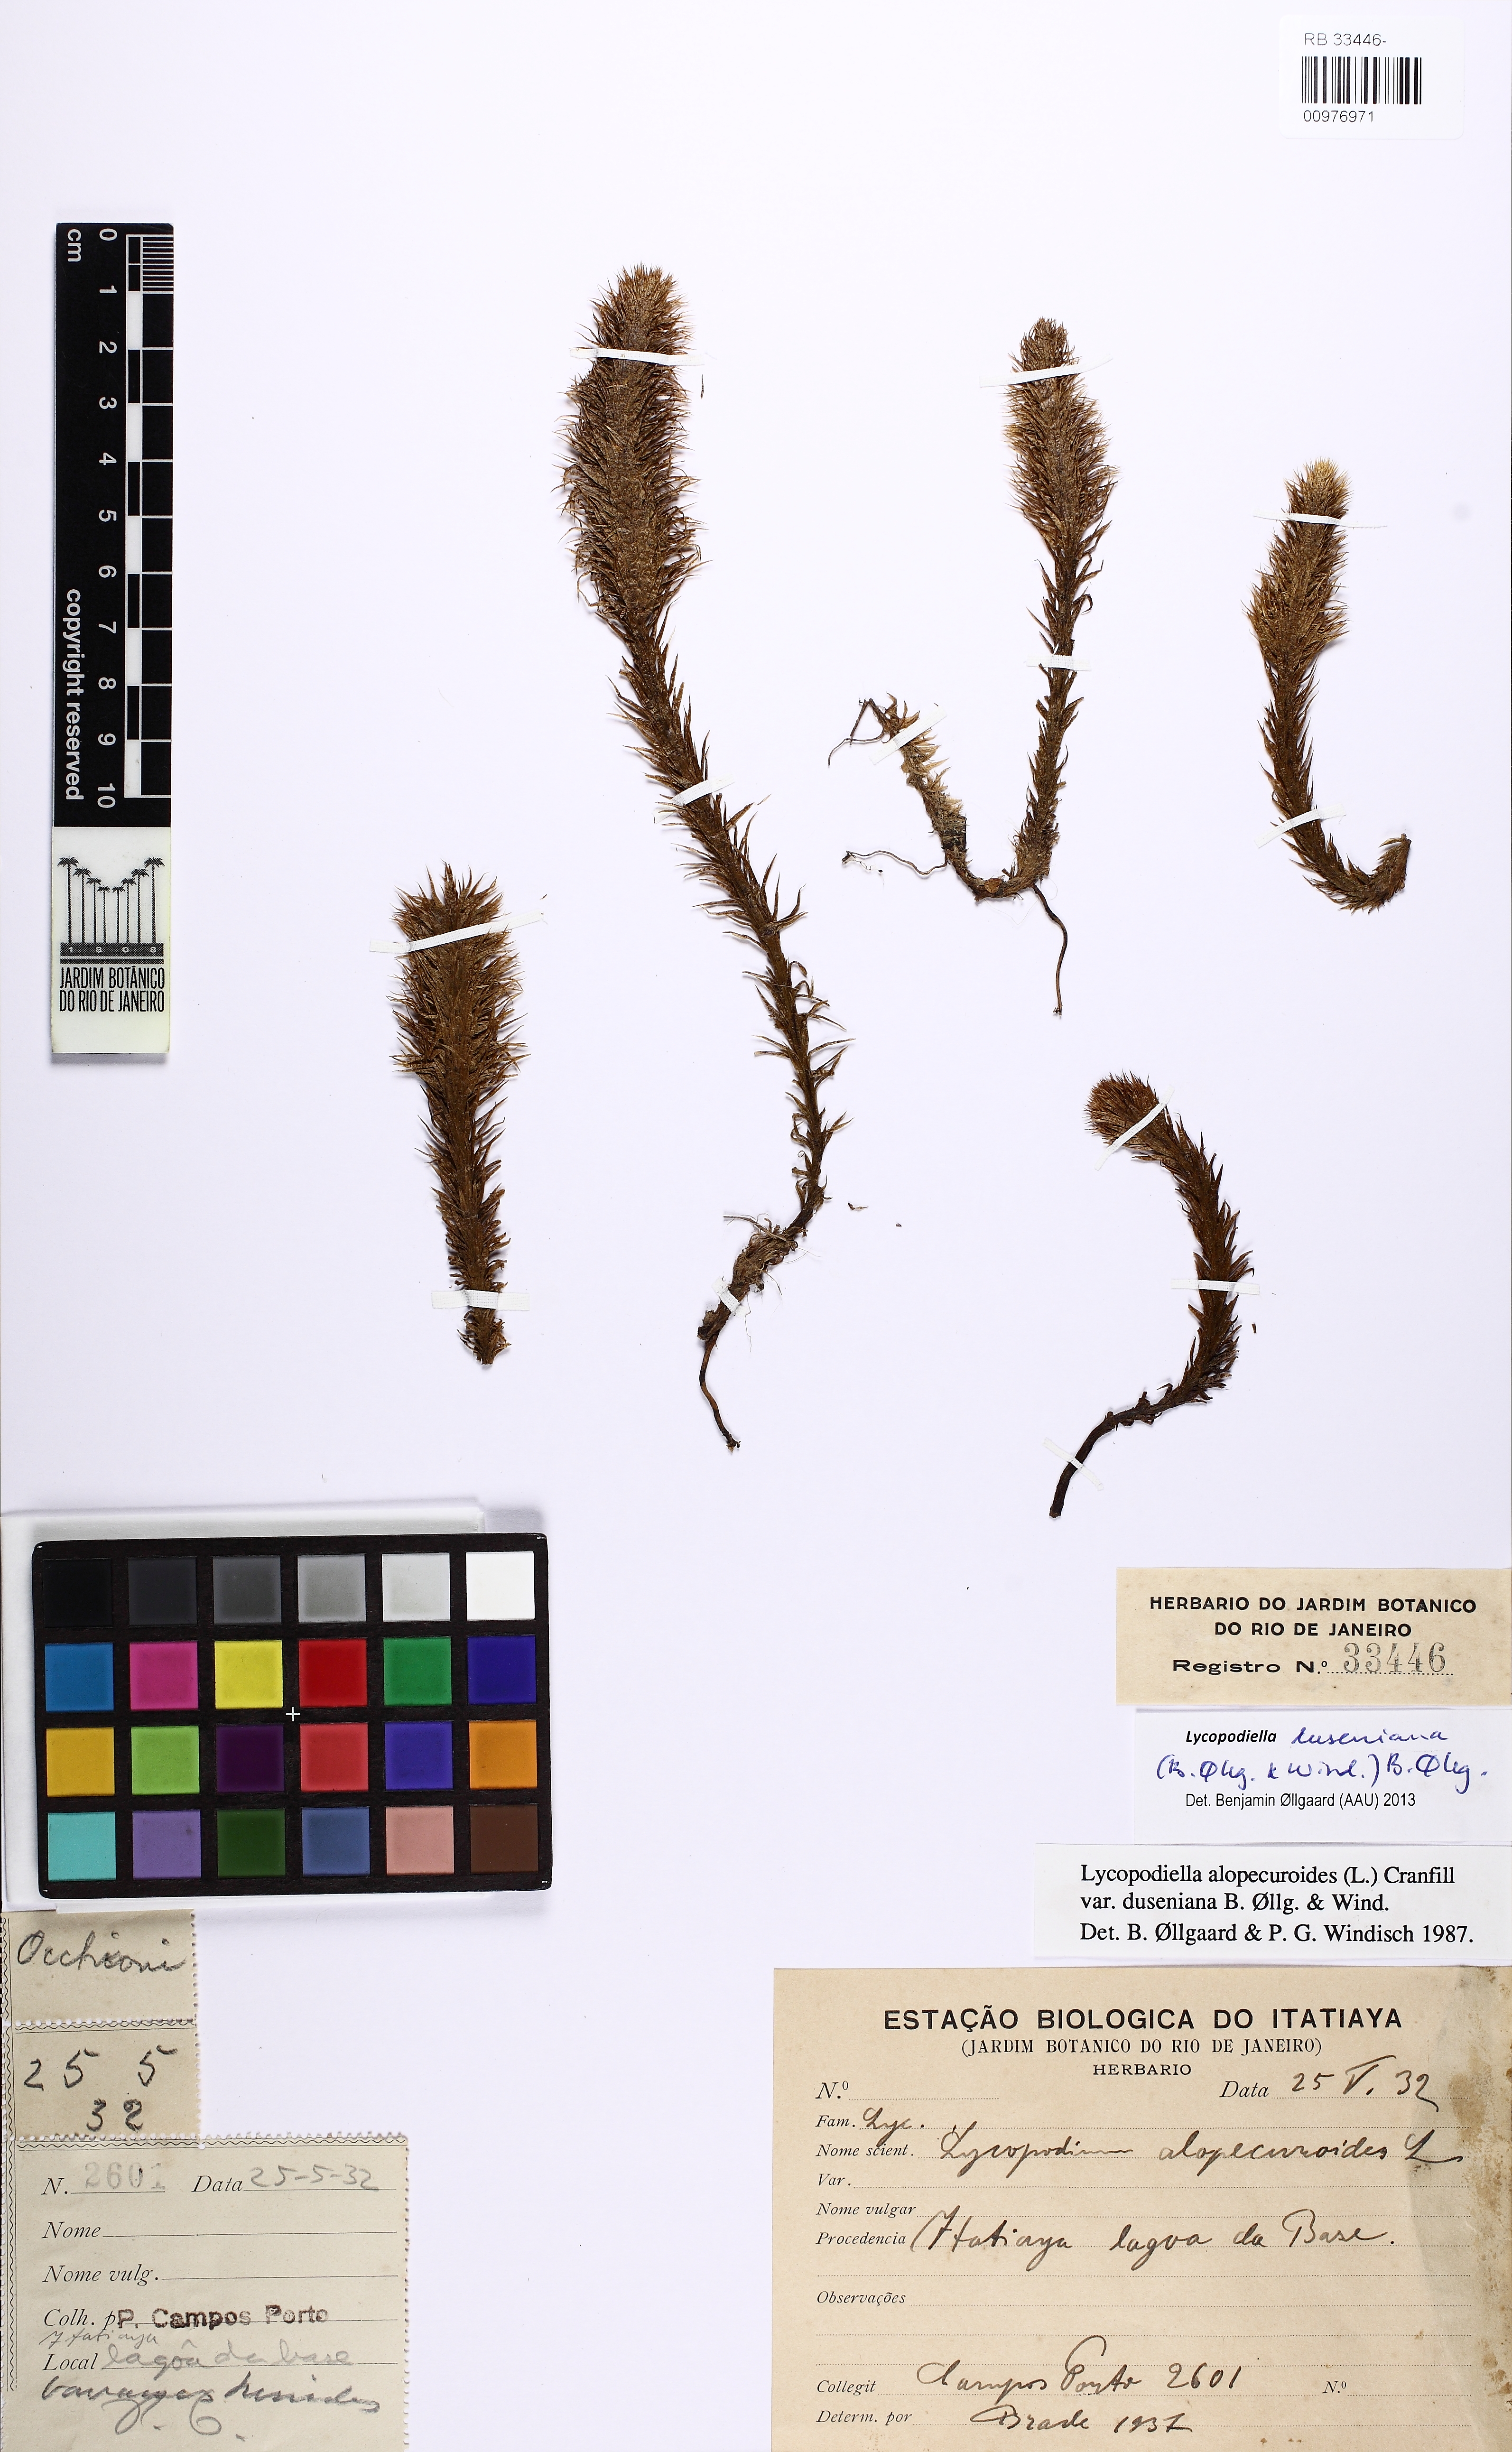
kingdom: Plantae
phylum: Tracheophyta
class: Lycopodiopsida
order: Lycopodiales
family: Lycopodiaceae
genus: Lycopodiella
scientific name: Lycopodiella duseniana
